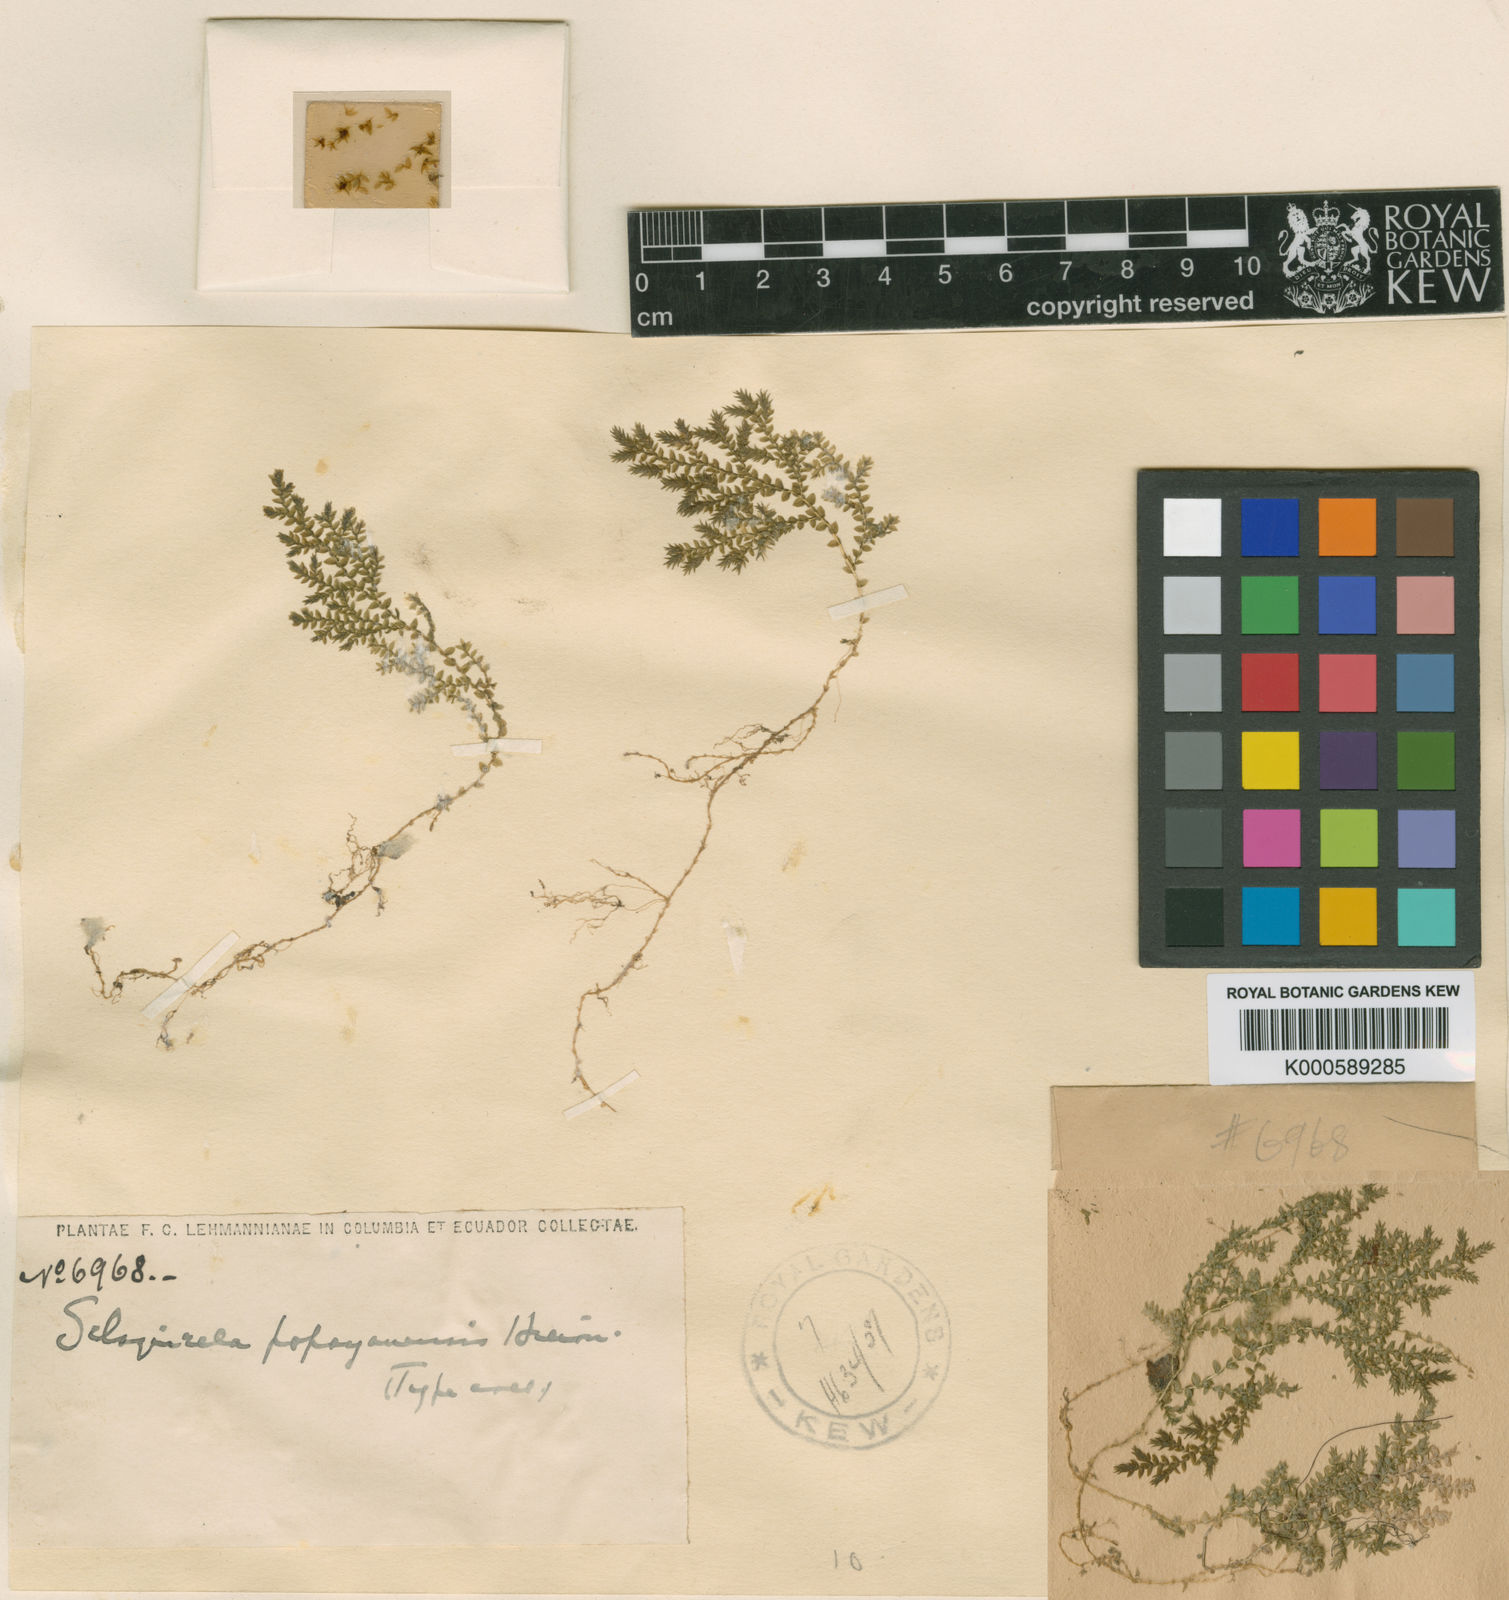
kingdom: Plantae
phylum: Tracheophyta
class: Lycopodiopsida
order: Selaginellales
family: Selaginellaceae
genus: Selaginella
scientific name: Selaginella popayanensis
